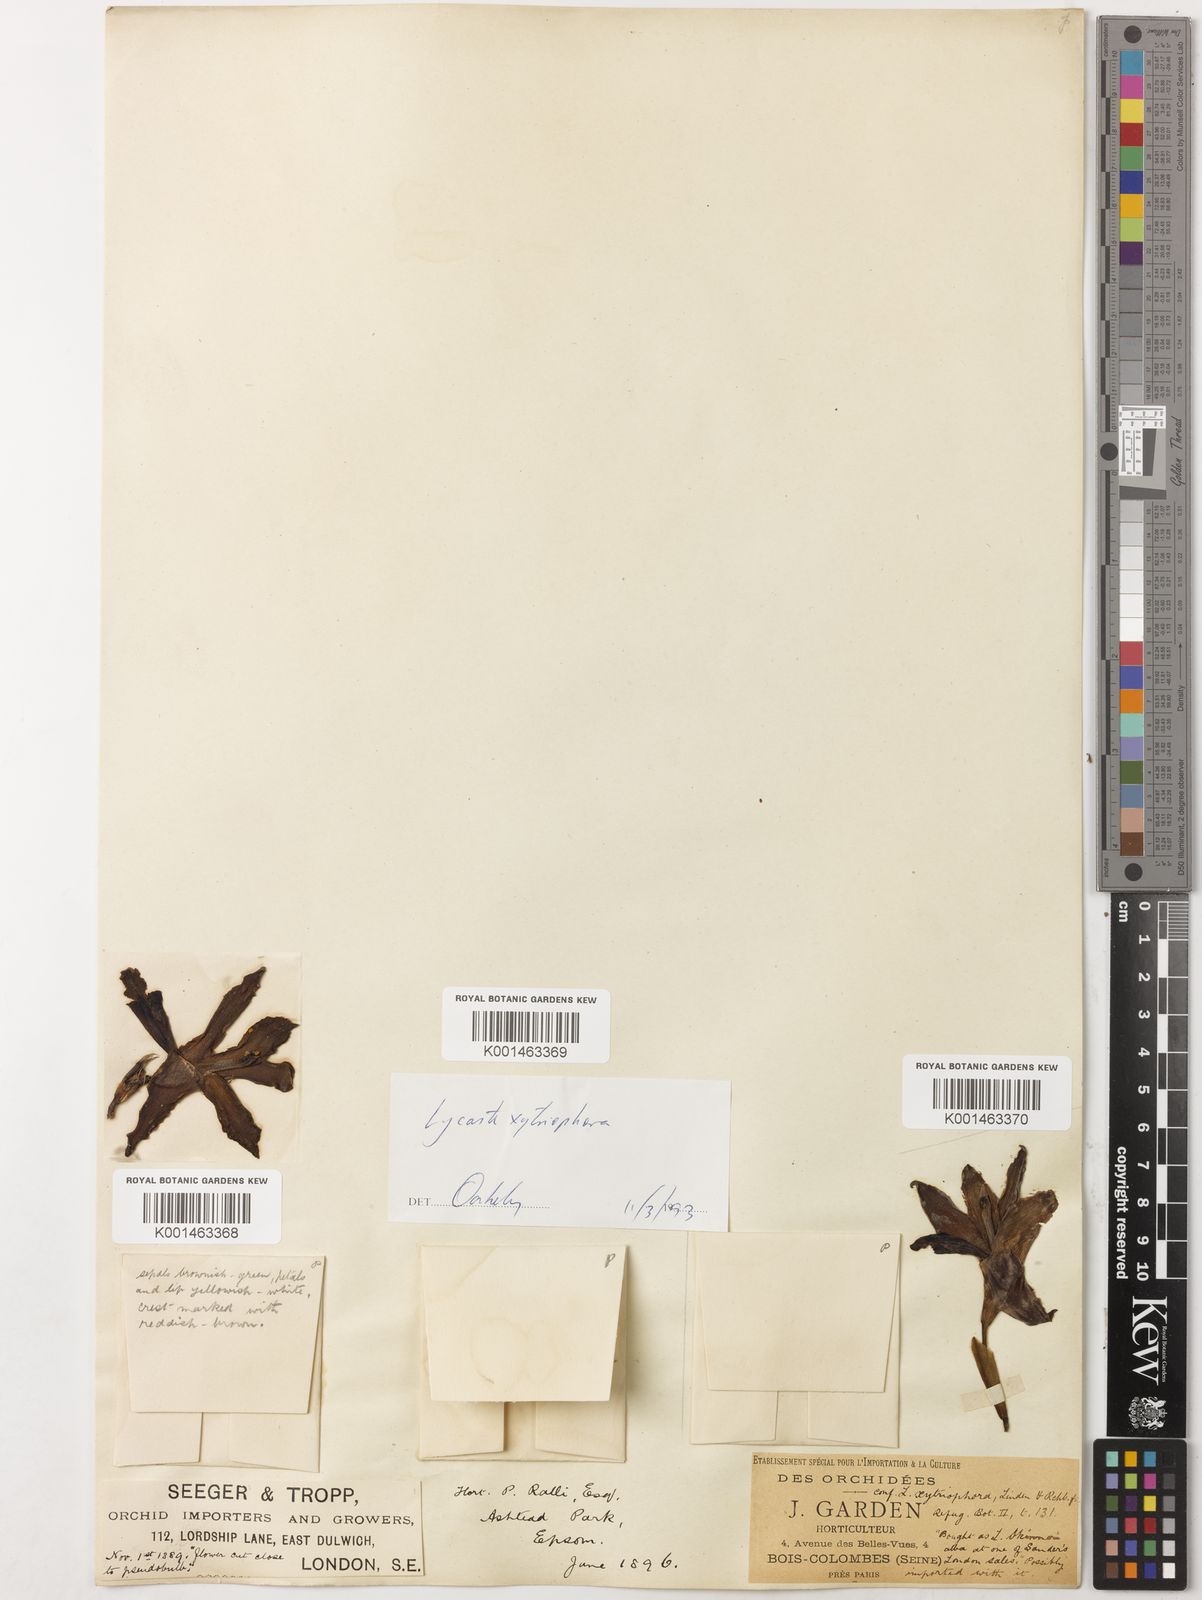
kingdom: Plantae
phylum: Tracheophyta
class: Liliopsida
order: Asparagales
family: Orchidaceae
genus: Lycaste
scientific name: Lycaste xytriophora
